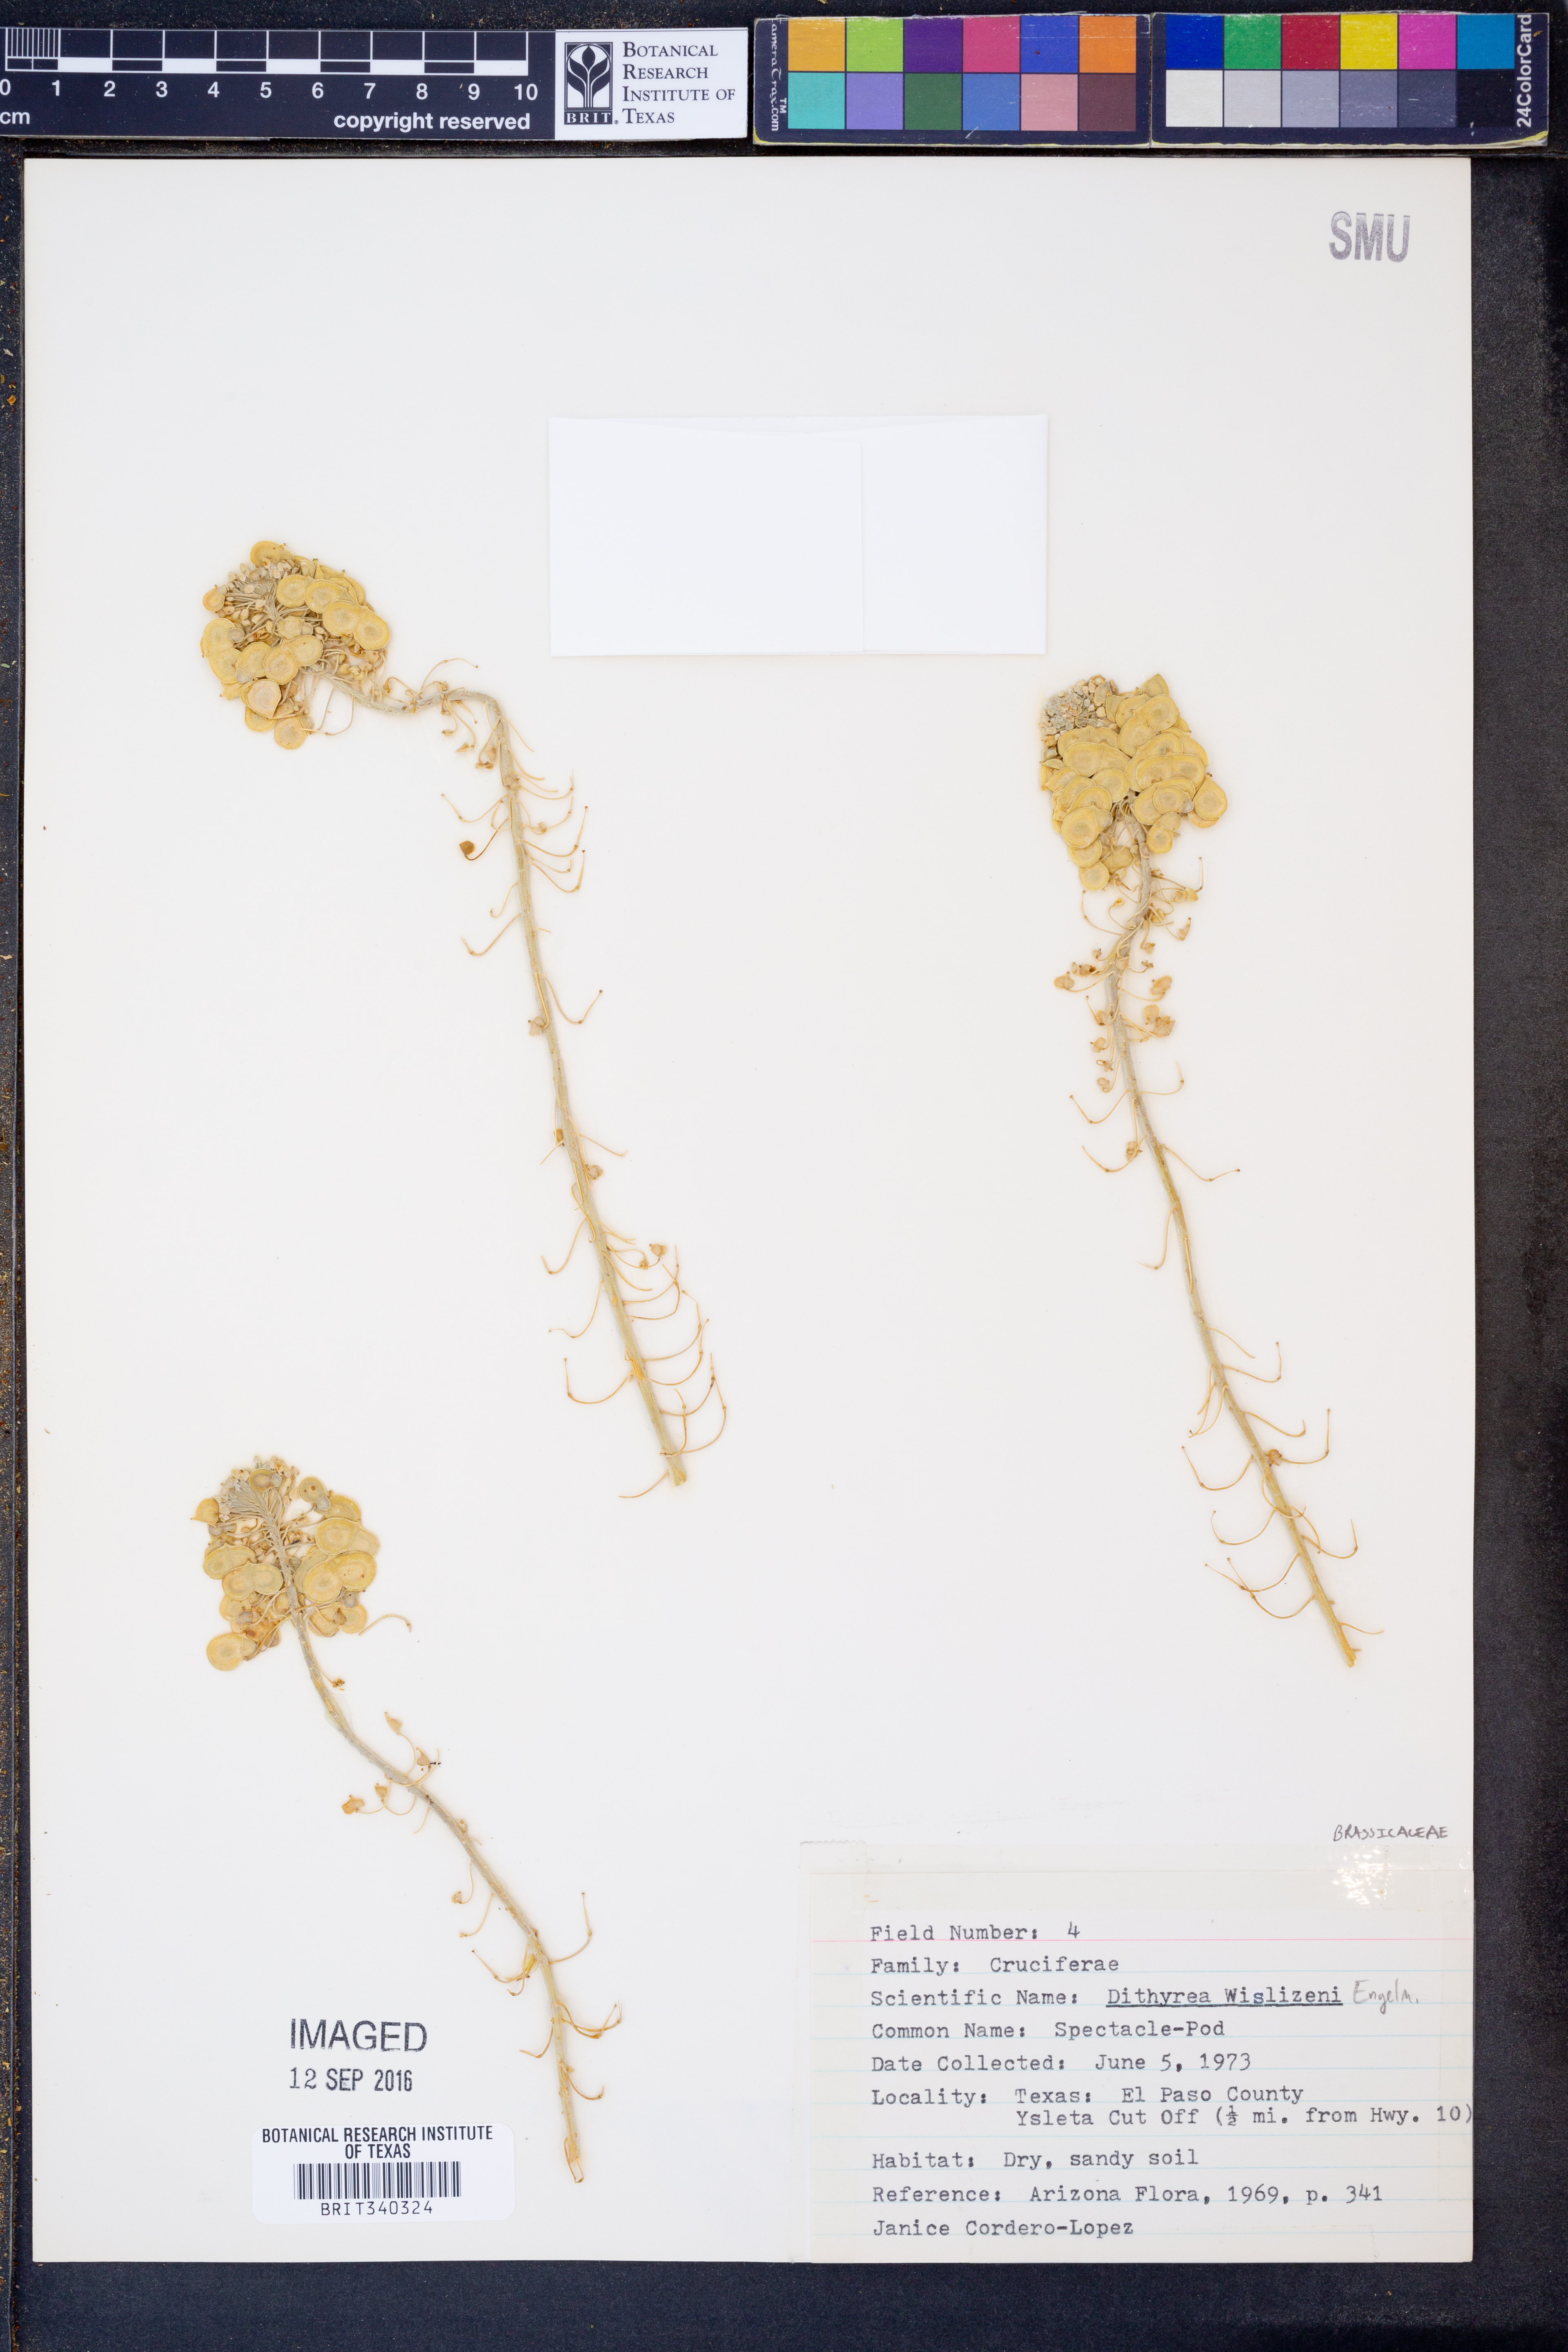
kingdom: Plantae
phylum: Tracheophyta
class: Magnoliopsida
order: Brassicales
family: Brassicaceae
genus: Dimorphocarpa
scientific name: Dimorphocarpa wislizenii
